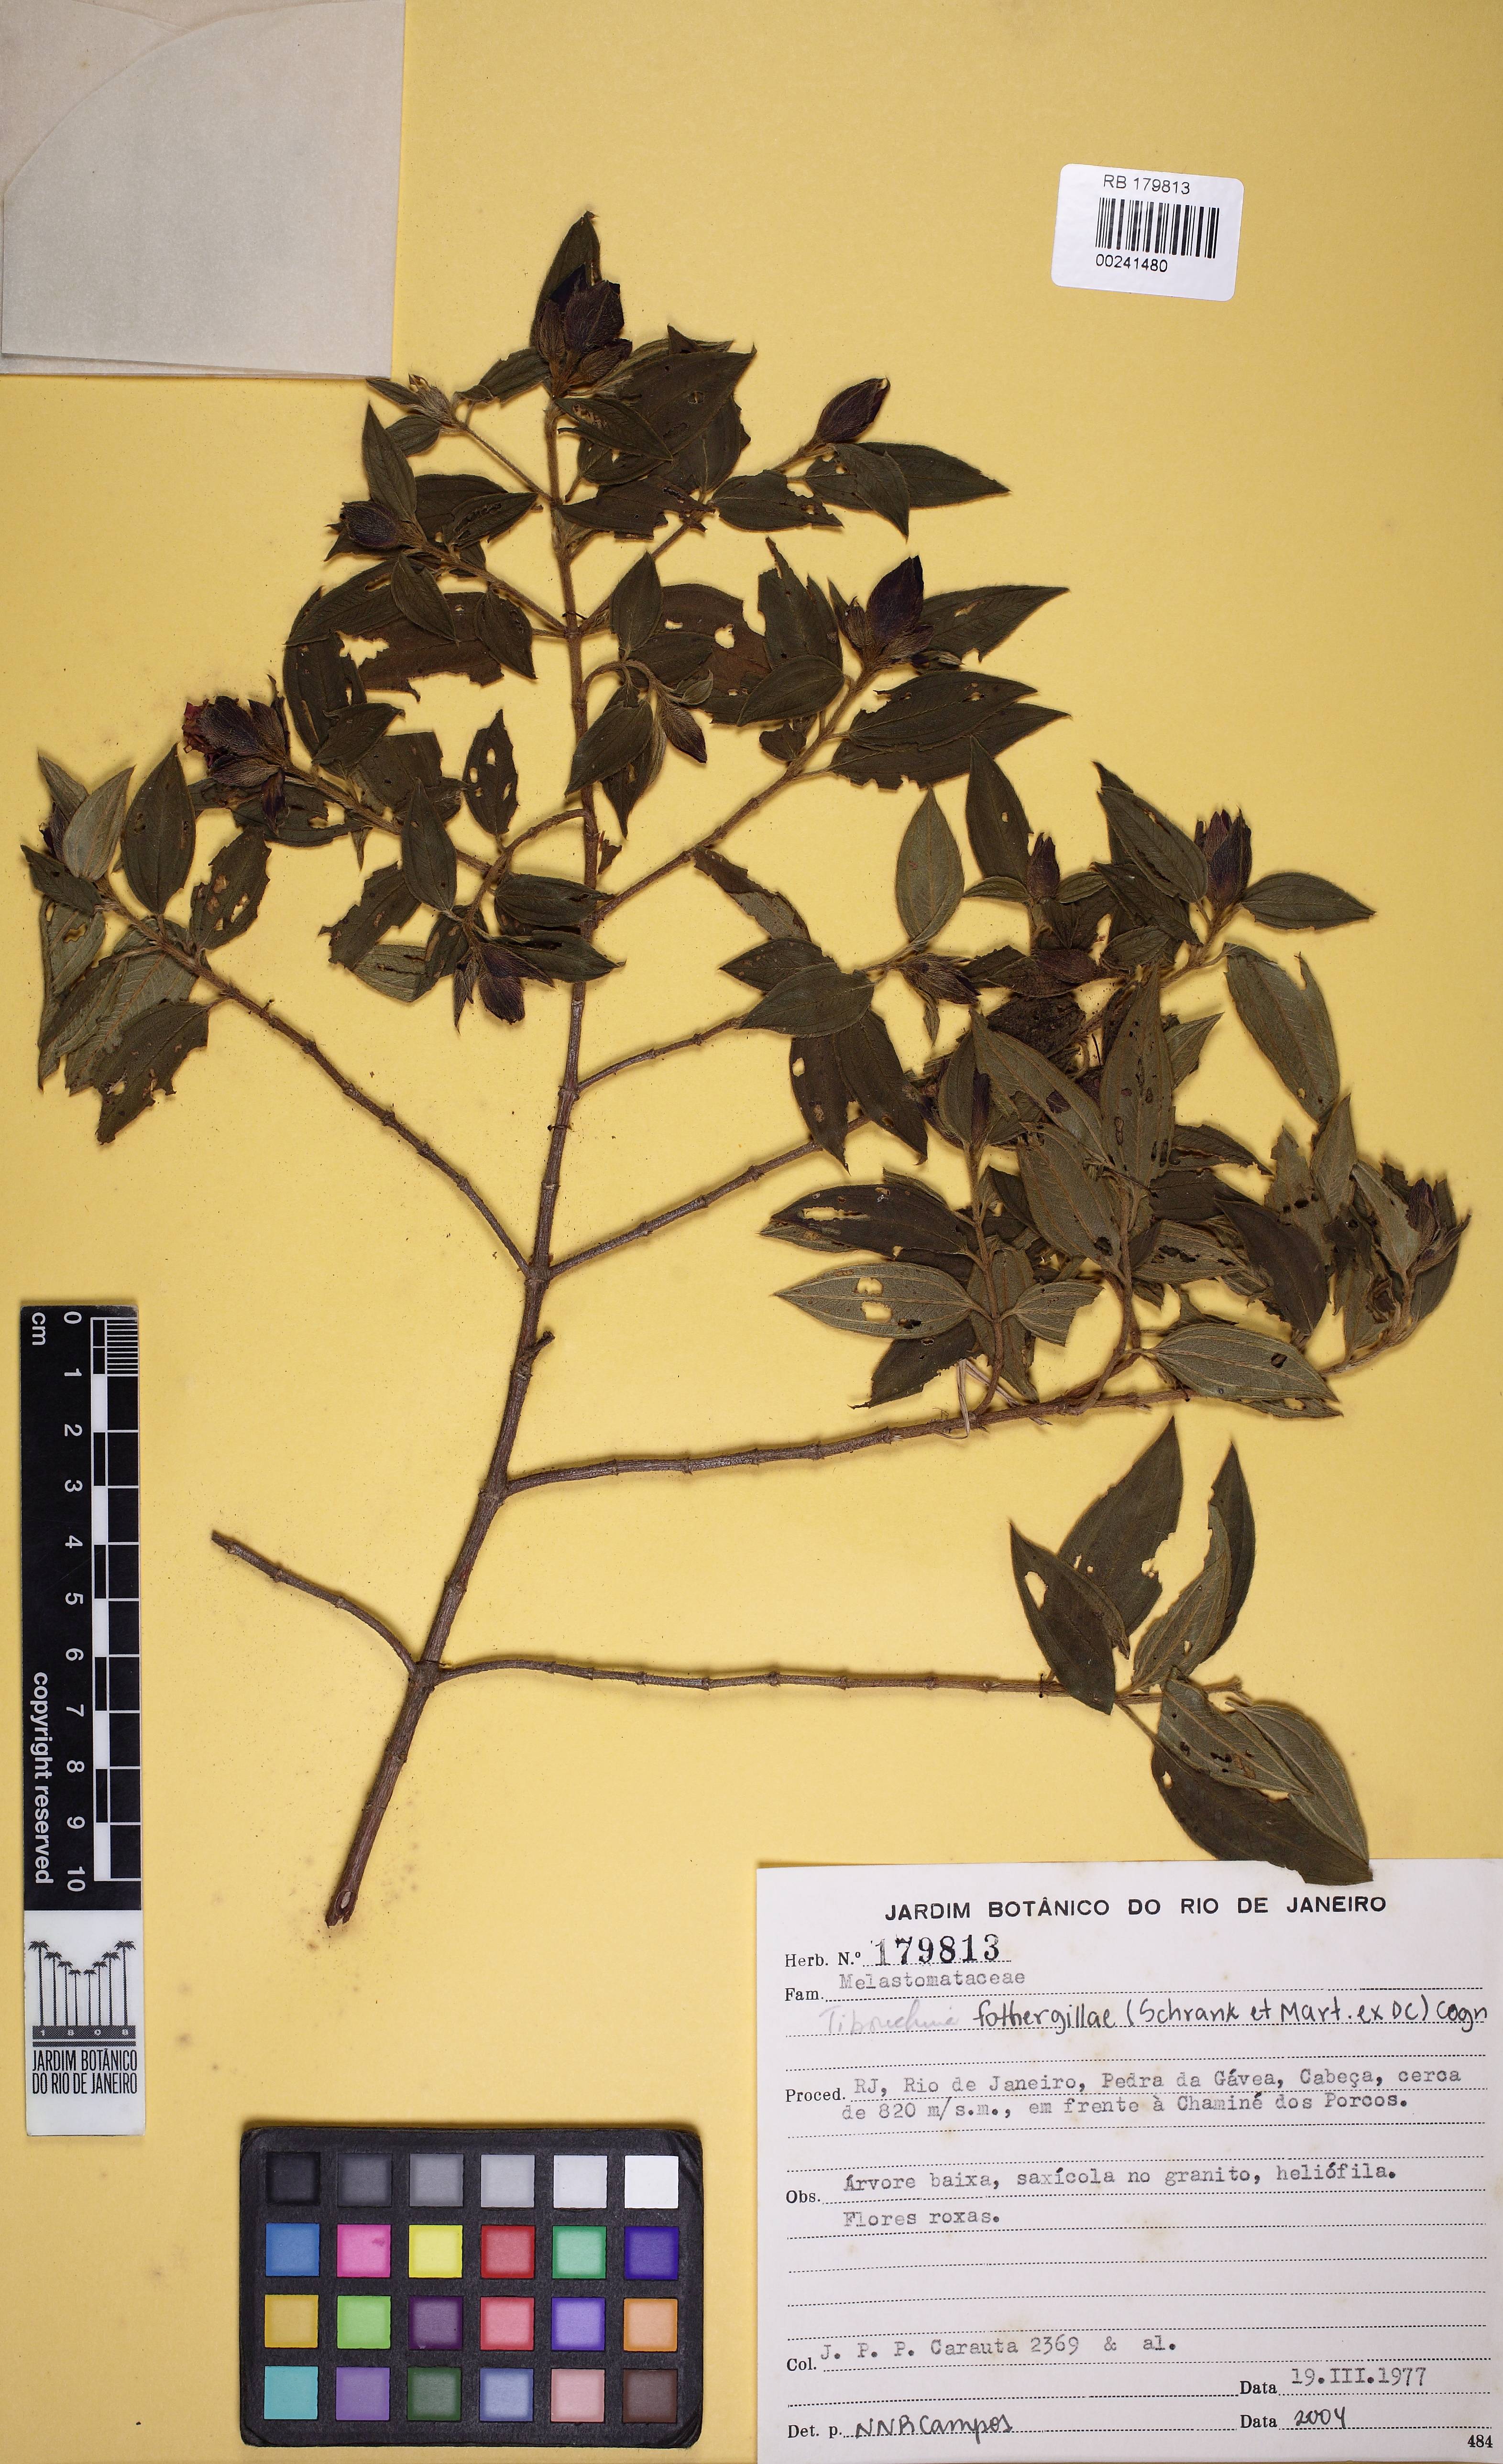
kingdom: Plantae
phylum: Tracheophyta
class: Magnoliopsida
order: Myrtales
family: Melastomataceae
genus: Pleroma
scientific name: Pleroma fothergillae
